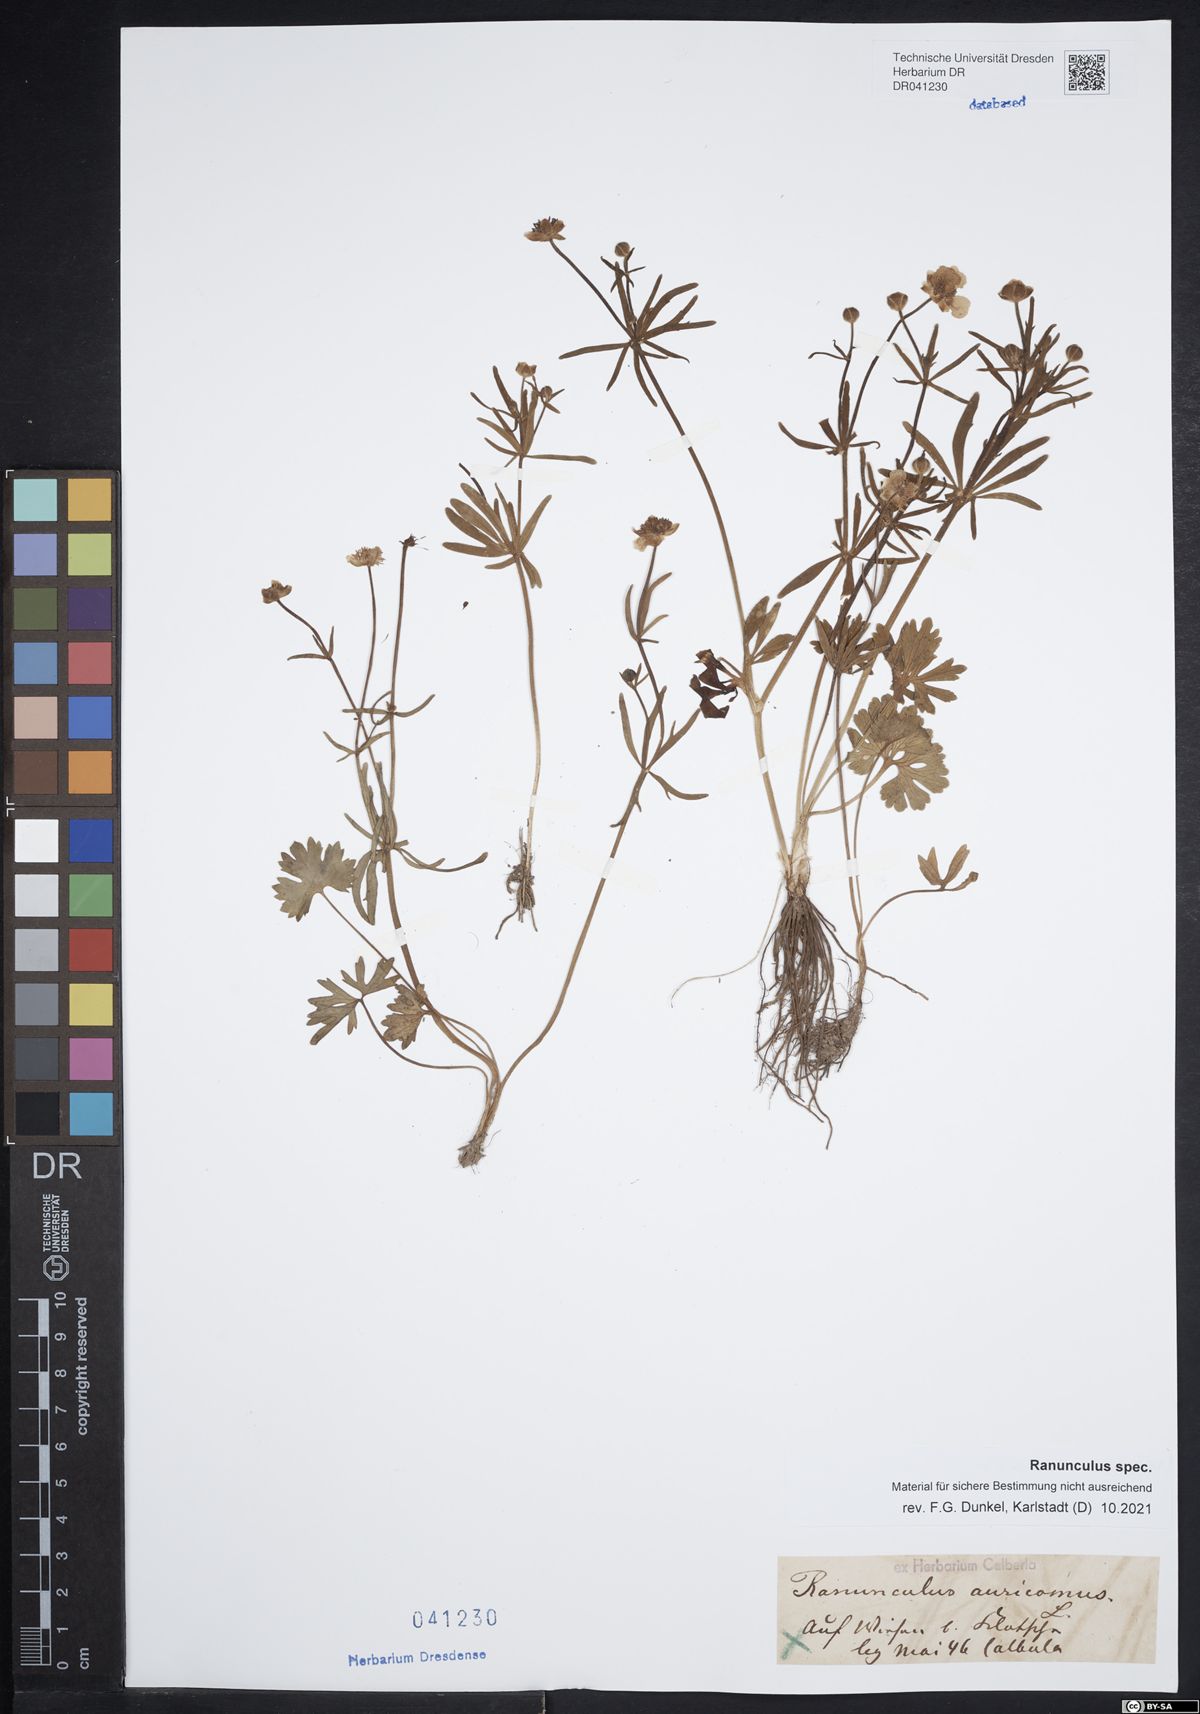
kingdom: Plantae
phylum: Tracheophyta
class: Magnoliopsida
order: Ranunculales
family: Ranunculaceae
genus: Ranunculus
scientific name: Ranunculus auricomus
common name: Goldilocks buttercup
